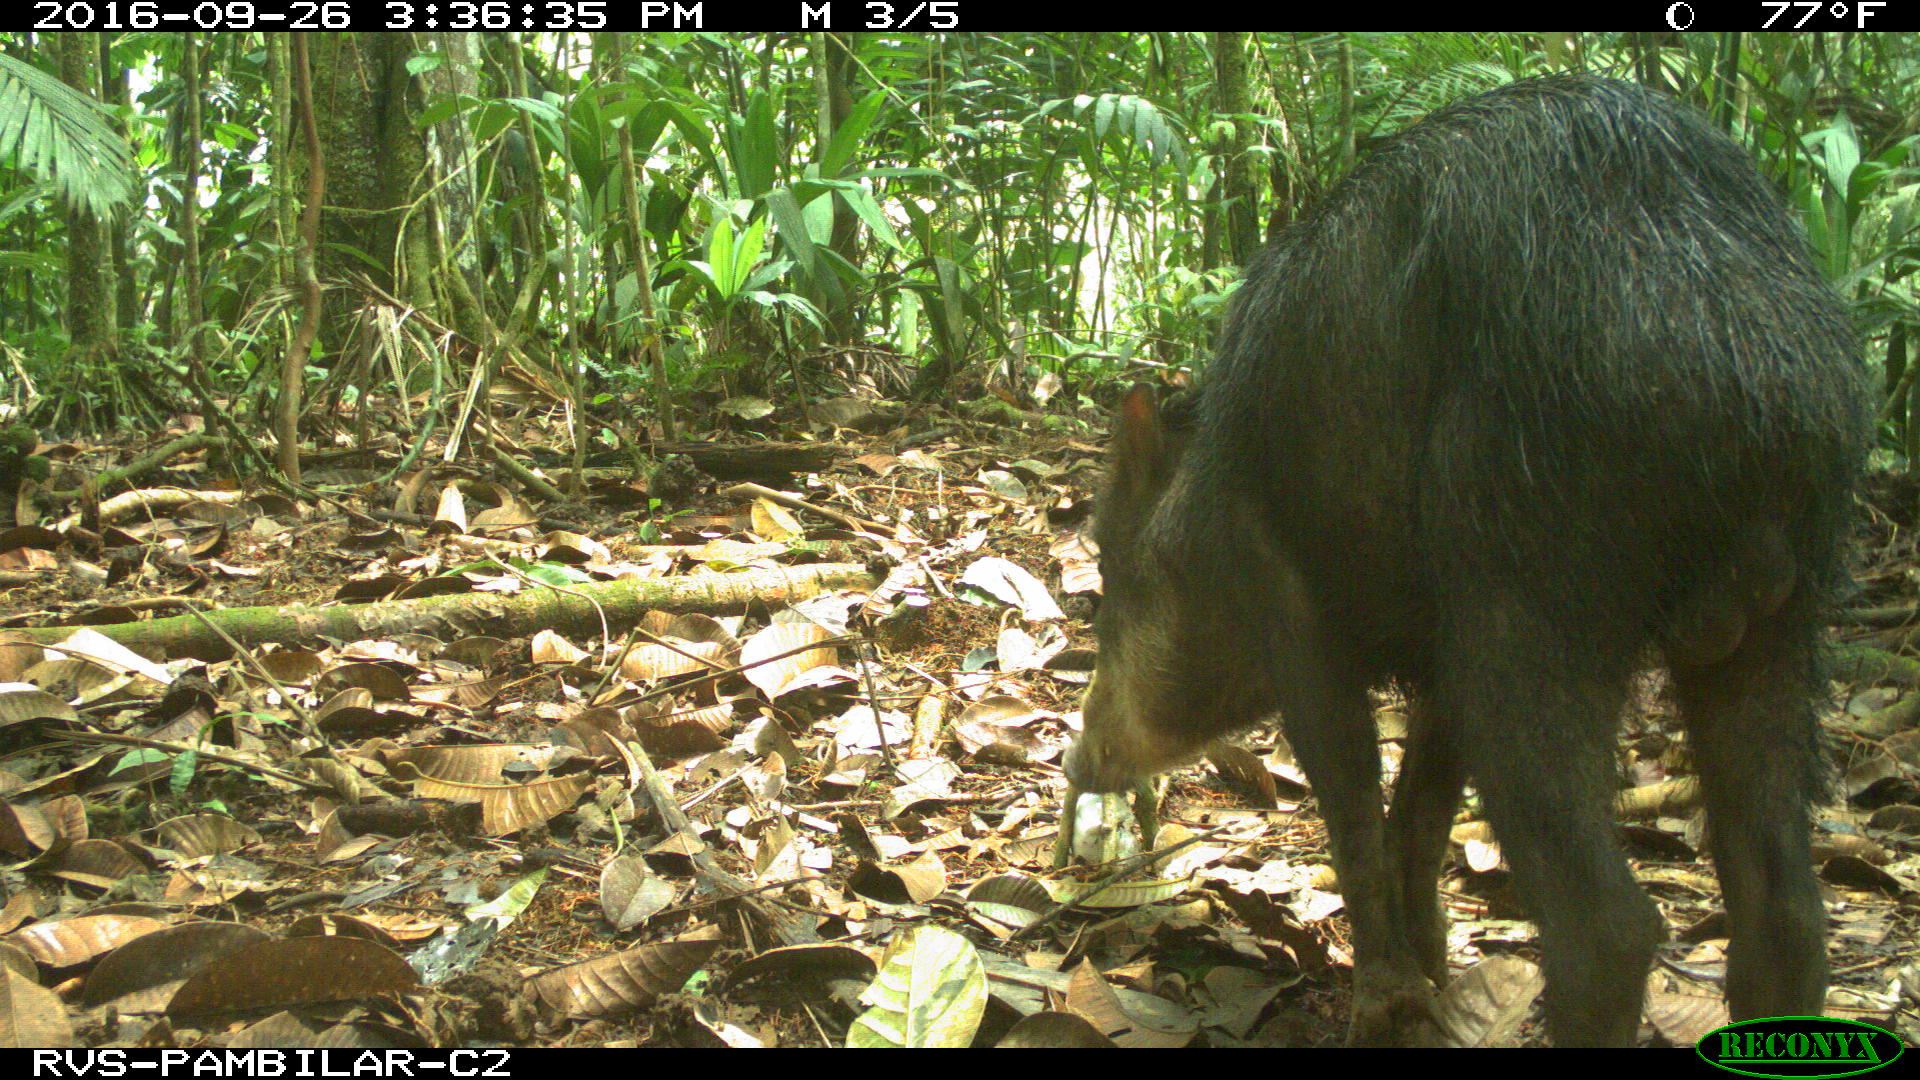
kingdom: Animalia
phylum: Chordata
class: Mammalia
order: Artiodactyla
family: Tayassuidae
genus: Tayassu
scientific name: Tayassu pecari
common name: White-lipped peccary
